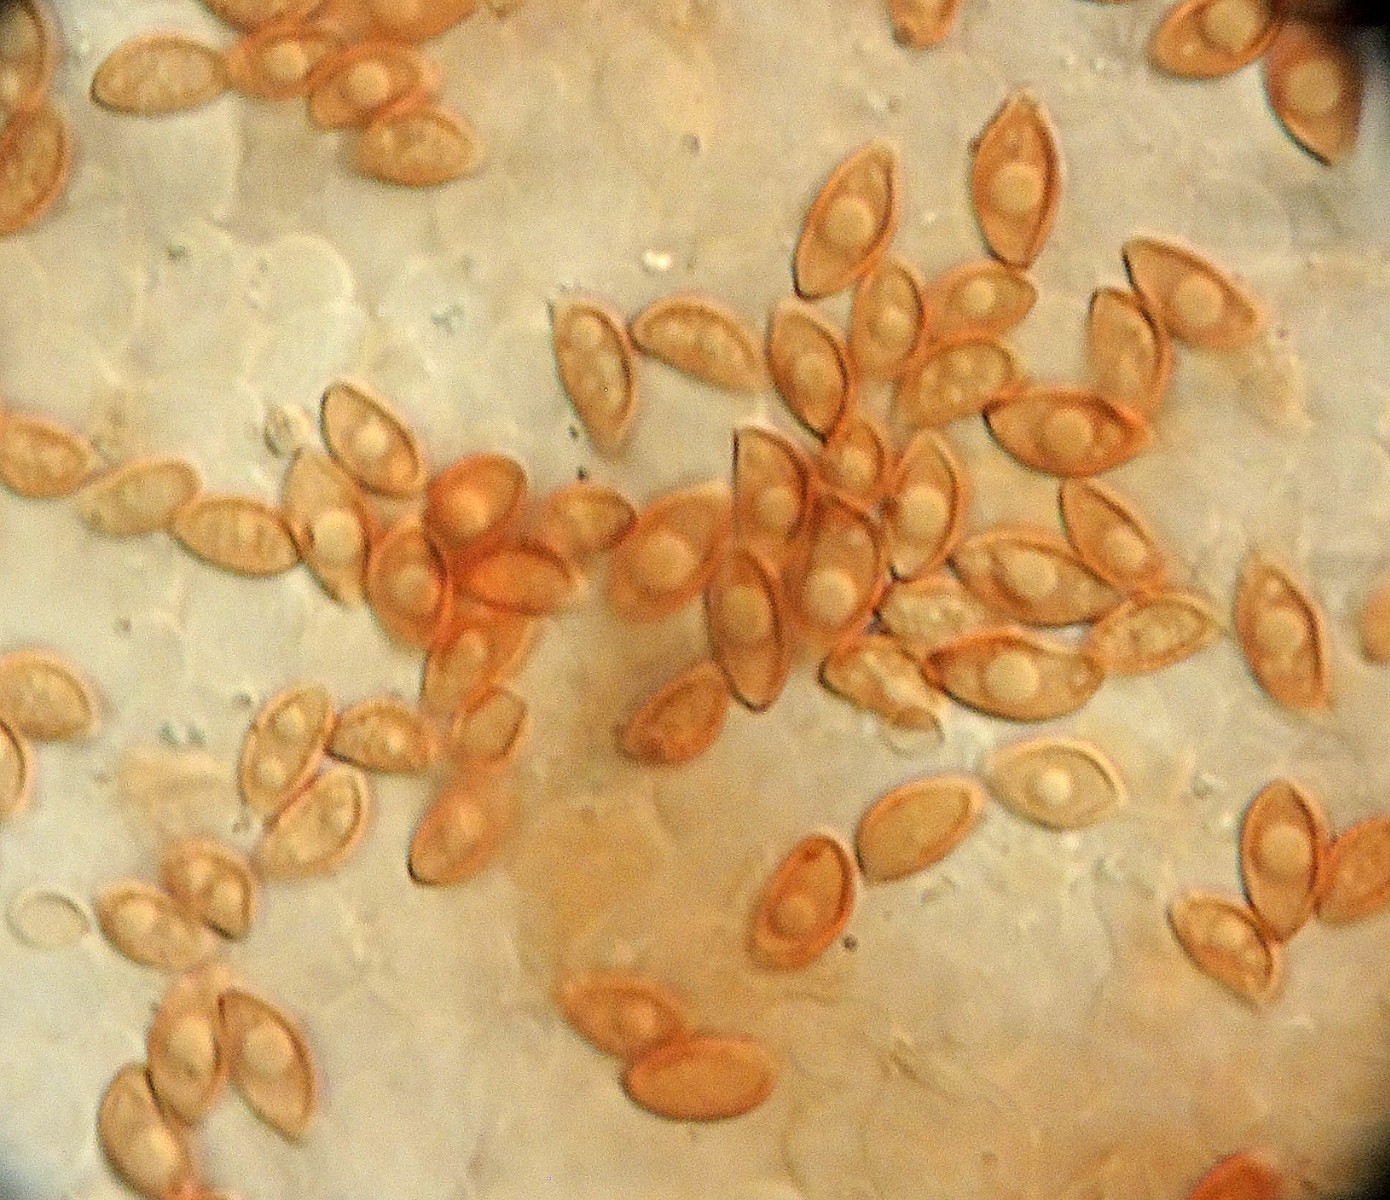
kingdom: Fungi
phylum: Basidiomycota
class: Agaricomycetes
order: Agaricales
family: Bolbitiaceae
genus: Conocybe
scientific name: Conocybe dumetorum
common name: Copse conecap
